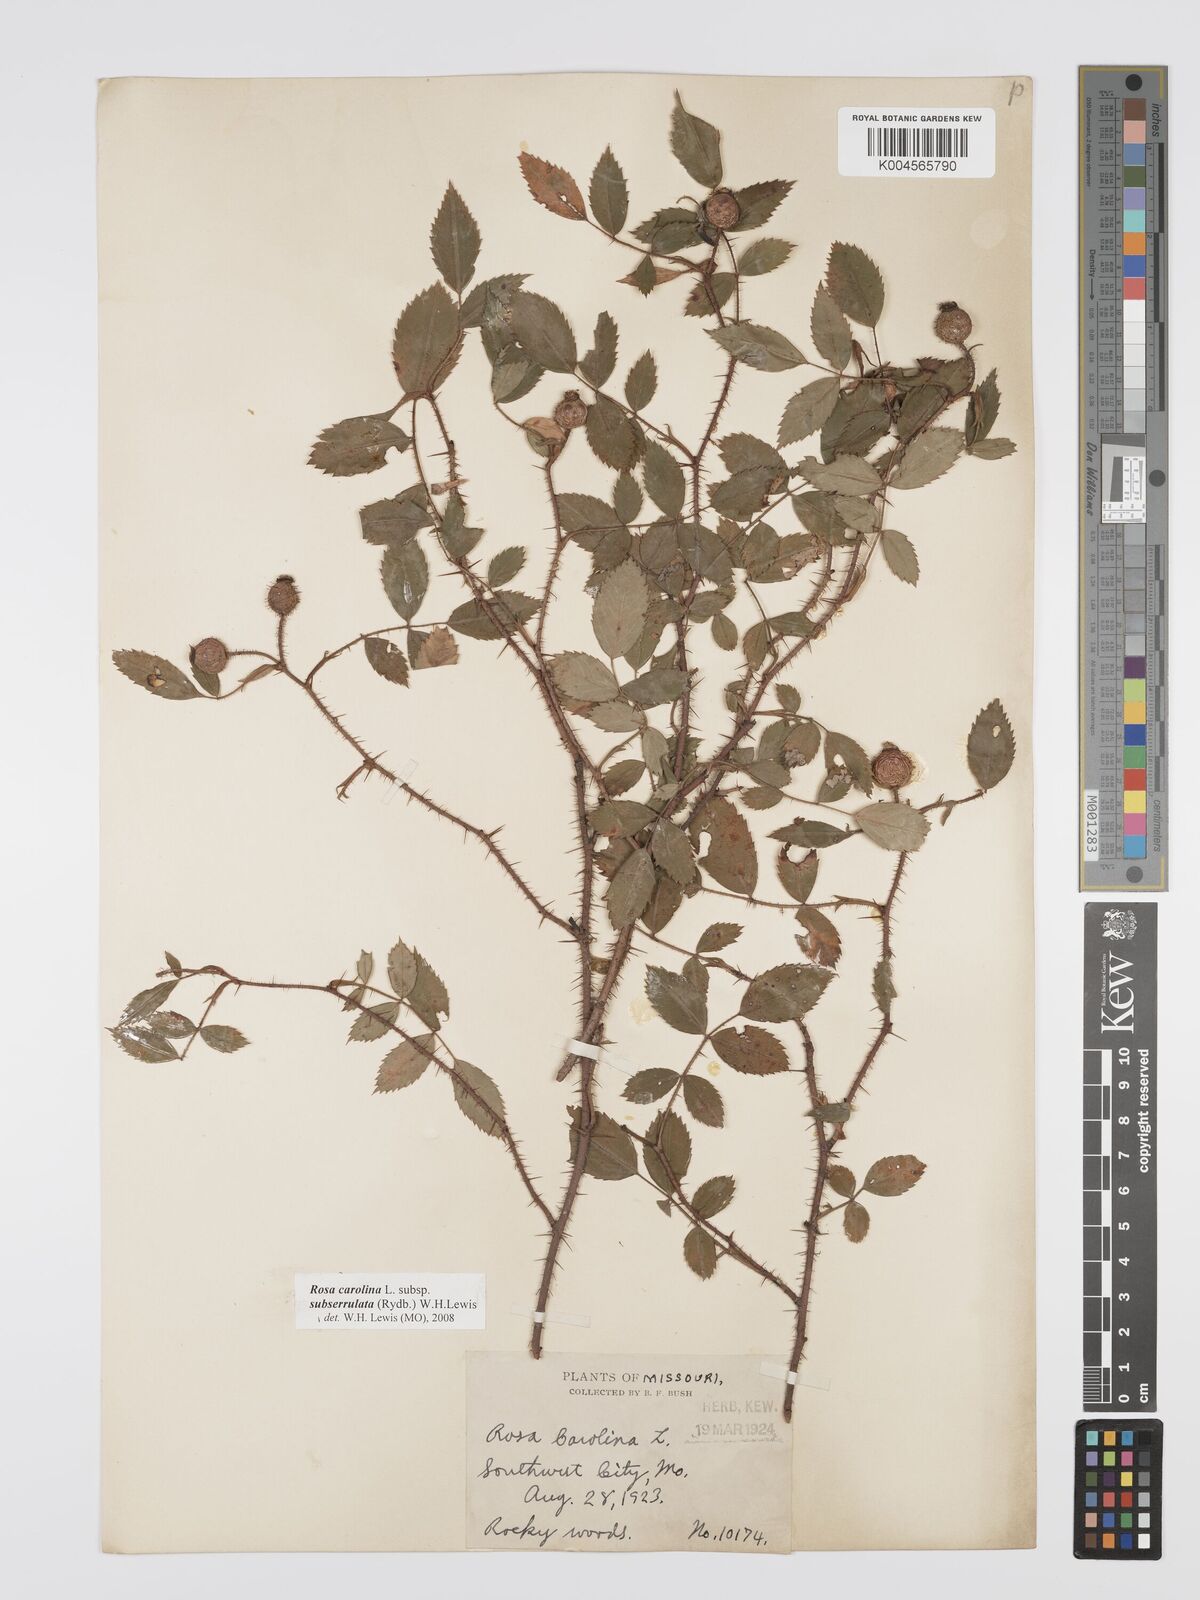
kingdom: Plantae
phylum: Tracheophyta
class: Magnoliopsida
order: Rosales
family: Rosaceae
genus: Rosa
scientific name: Rosa carolina
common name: Pasture rose
